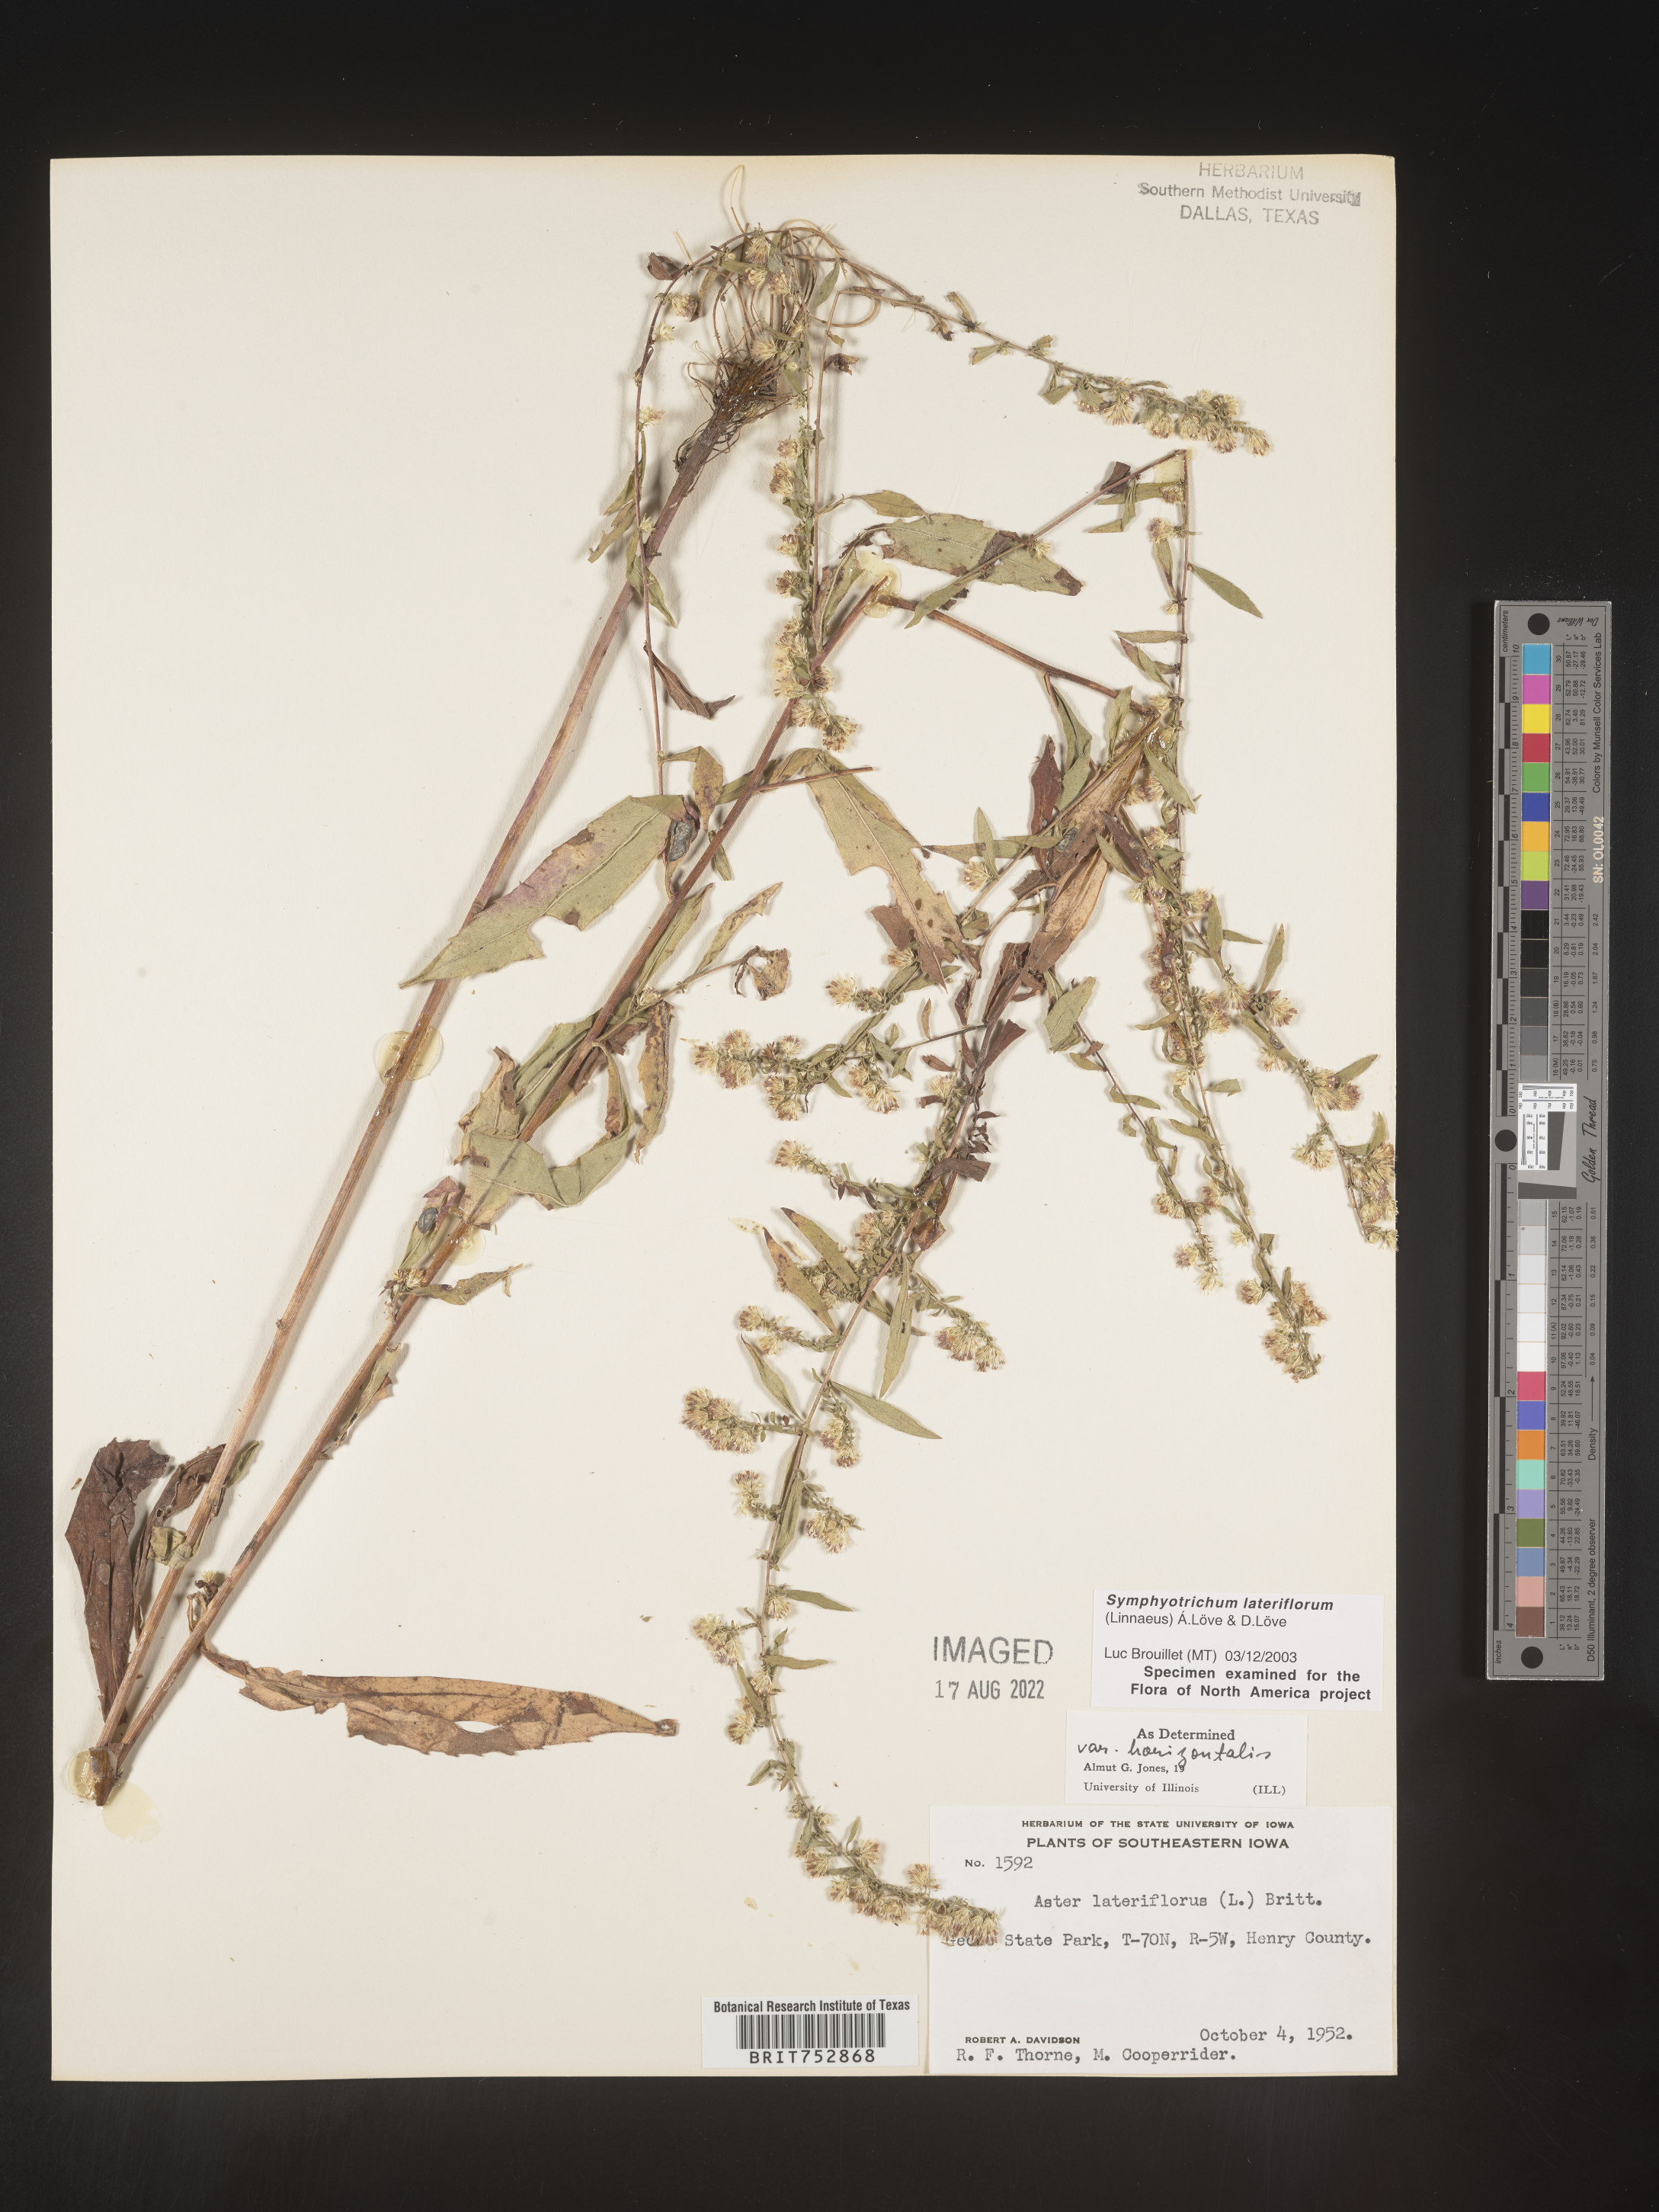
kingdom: Plantae
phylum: Tracheophyta
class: Magnoliopsida
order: Asterales
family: Asteraceae
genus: Symphyotrichum
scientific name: Symphyotrichum lateriflorum
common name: Calico aster
